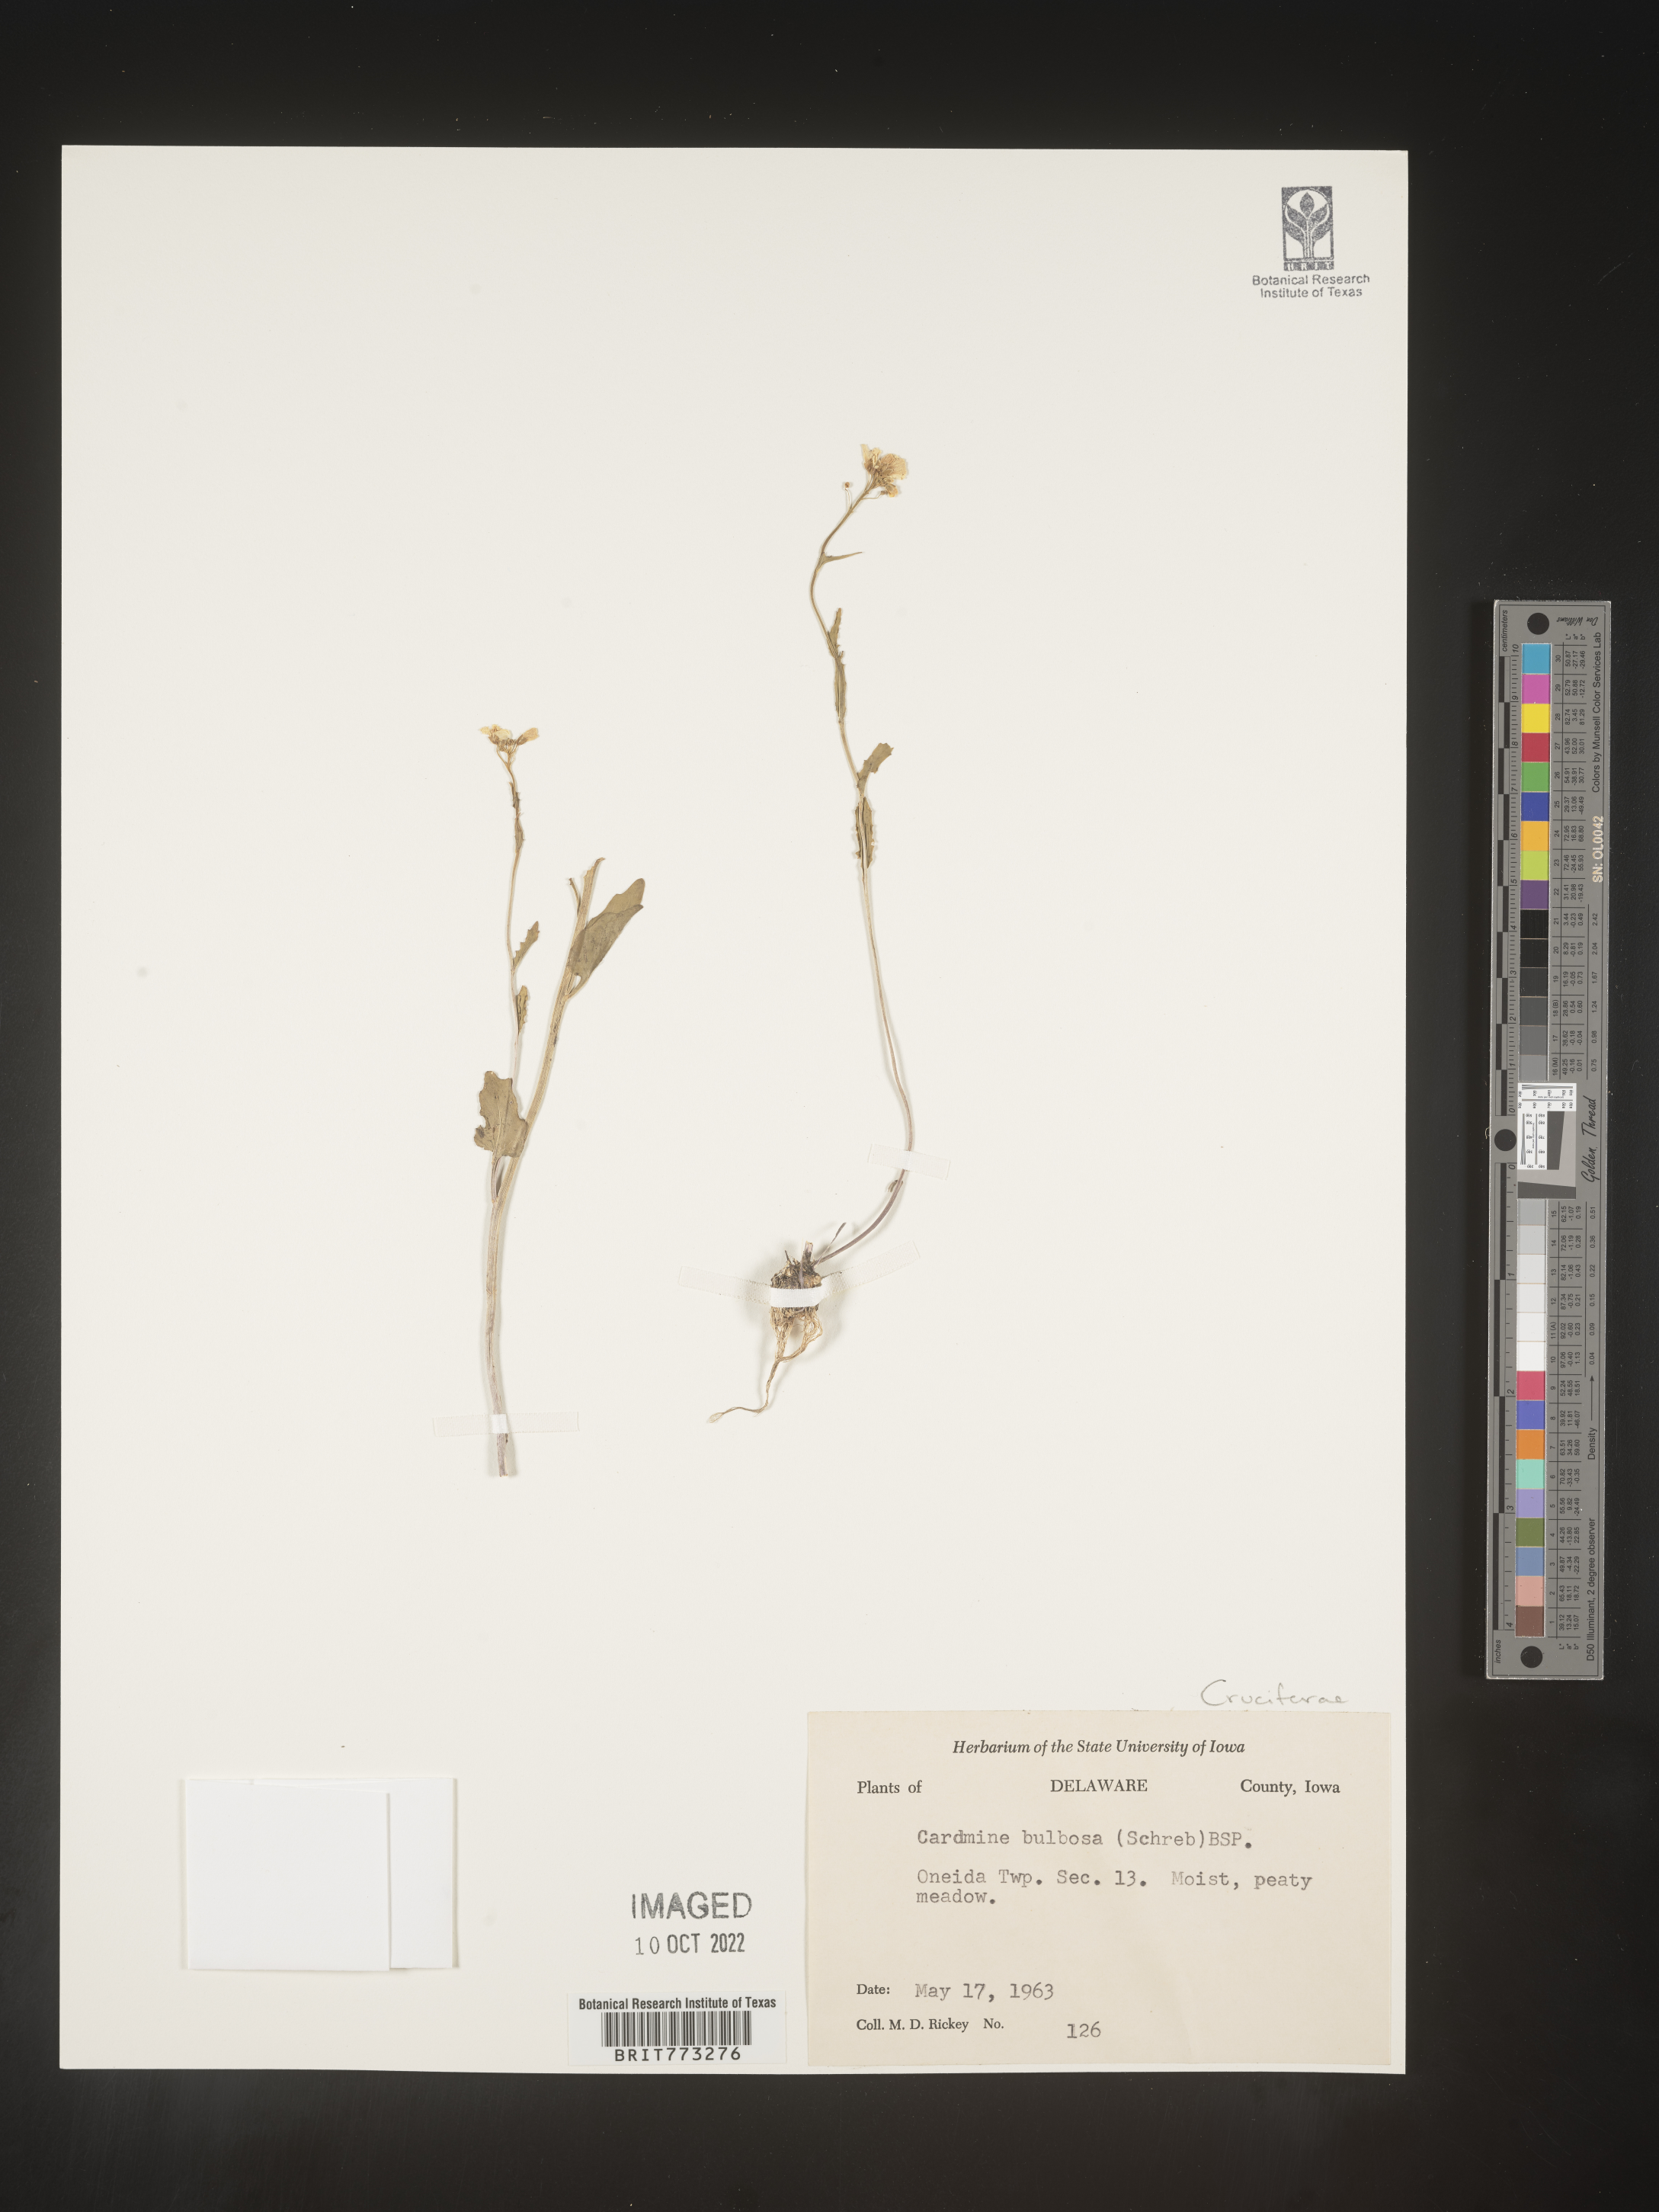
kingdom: Plantae
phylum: Tracheophyta
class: Magnoliopsida
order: Brassicales
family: Brassicaceae
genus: Cardamine
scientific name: Cardamine bulbosa
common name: Spring cress
